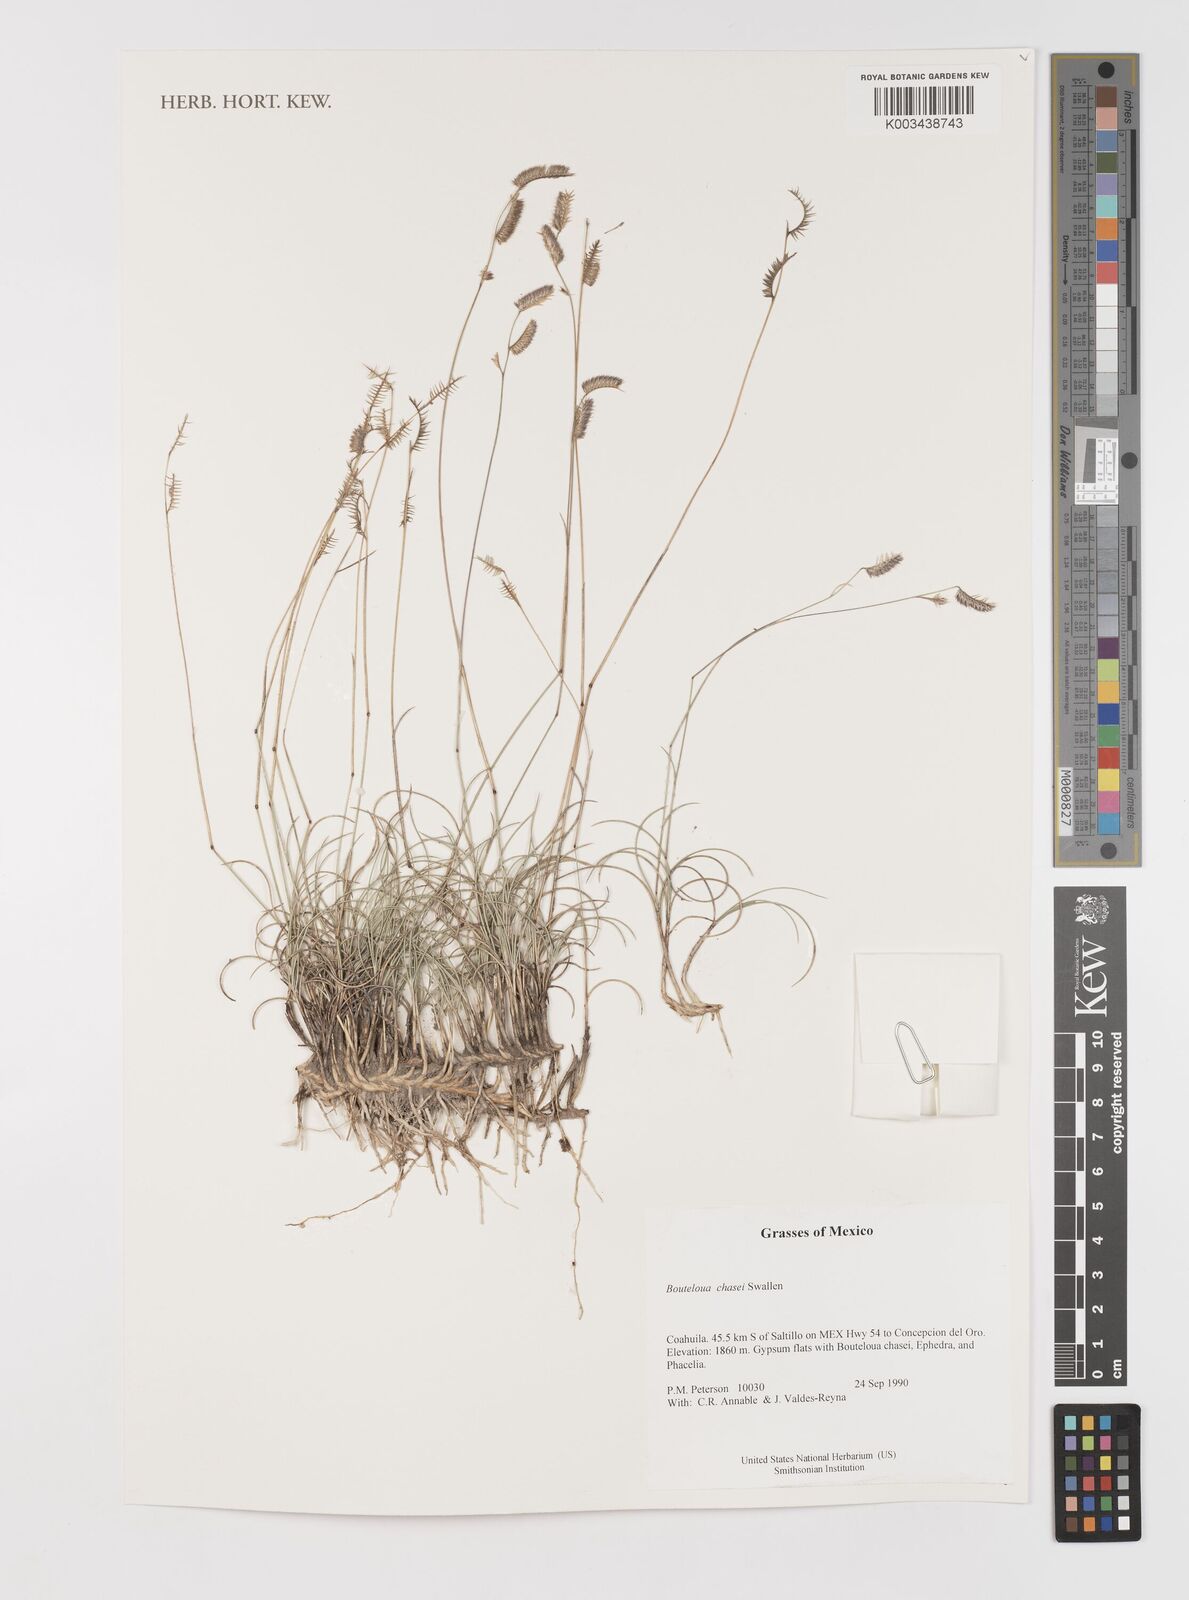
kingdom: Plantae
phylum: Tracheophyta
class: Liliopsida
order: Poales
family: Poaceae
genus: Bouteloua
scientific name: Bouteloua chasei
